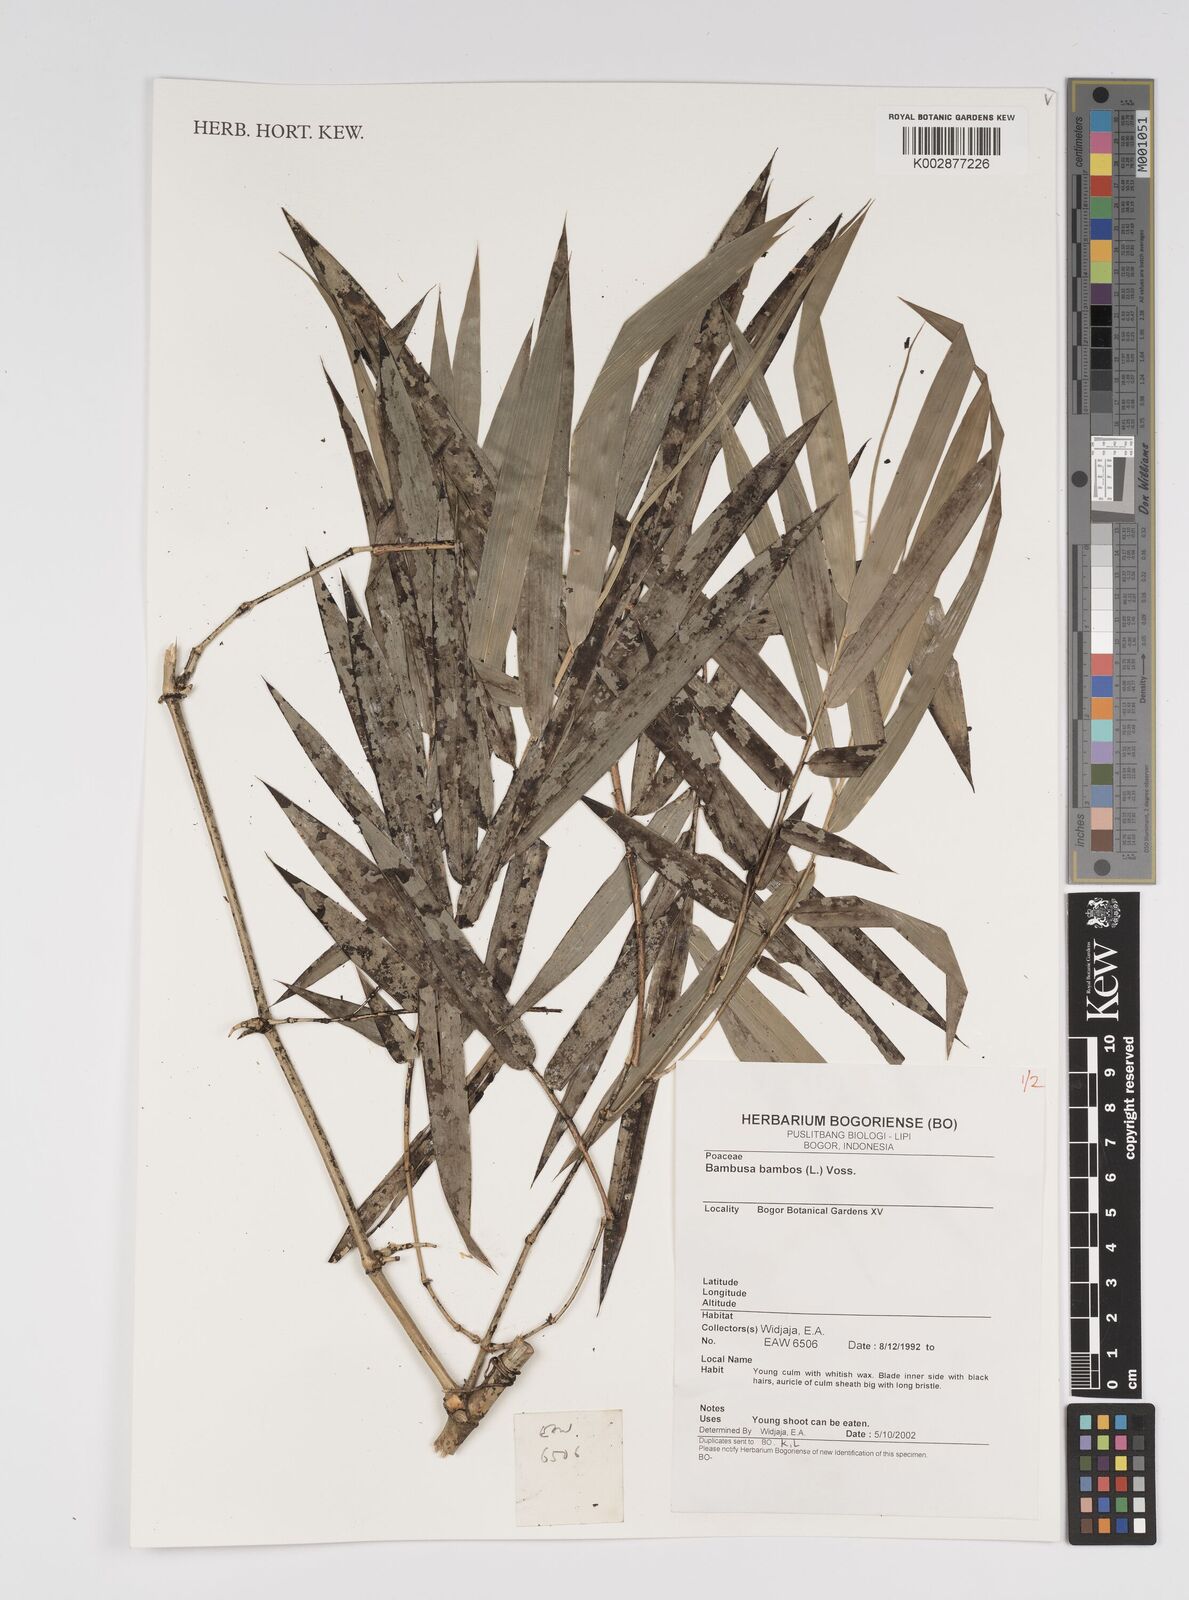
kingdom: Plantae
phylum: Tracheophyta
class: Liliopsida
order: Poales
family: Poaceae
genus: Bambusa
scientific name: Bambusa bambos
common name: Indian thorny bamboo
